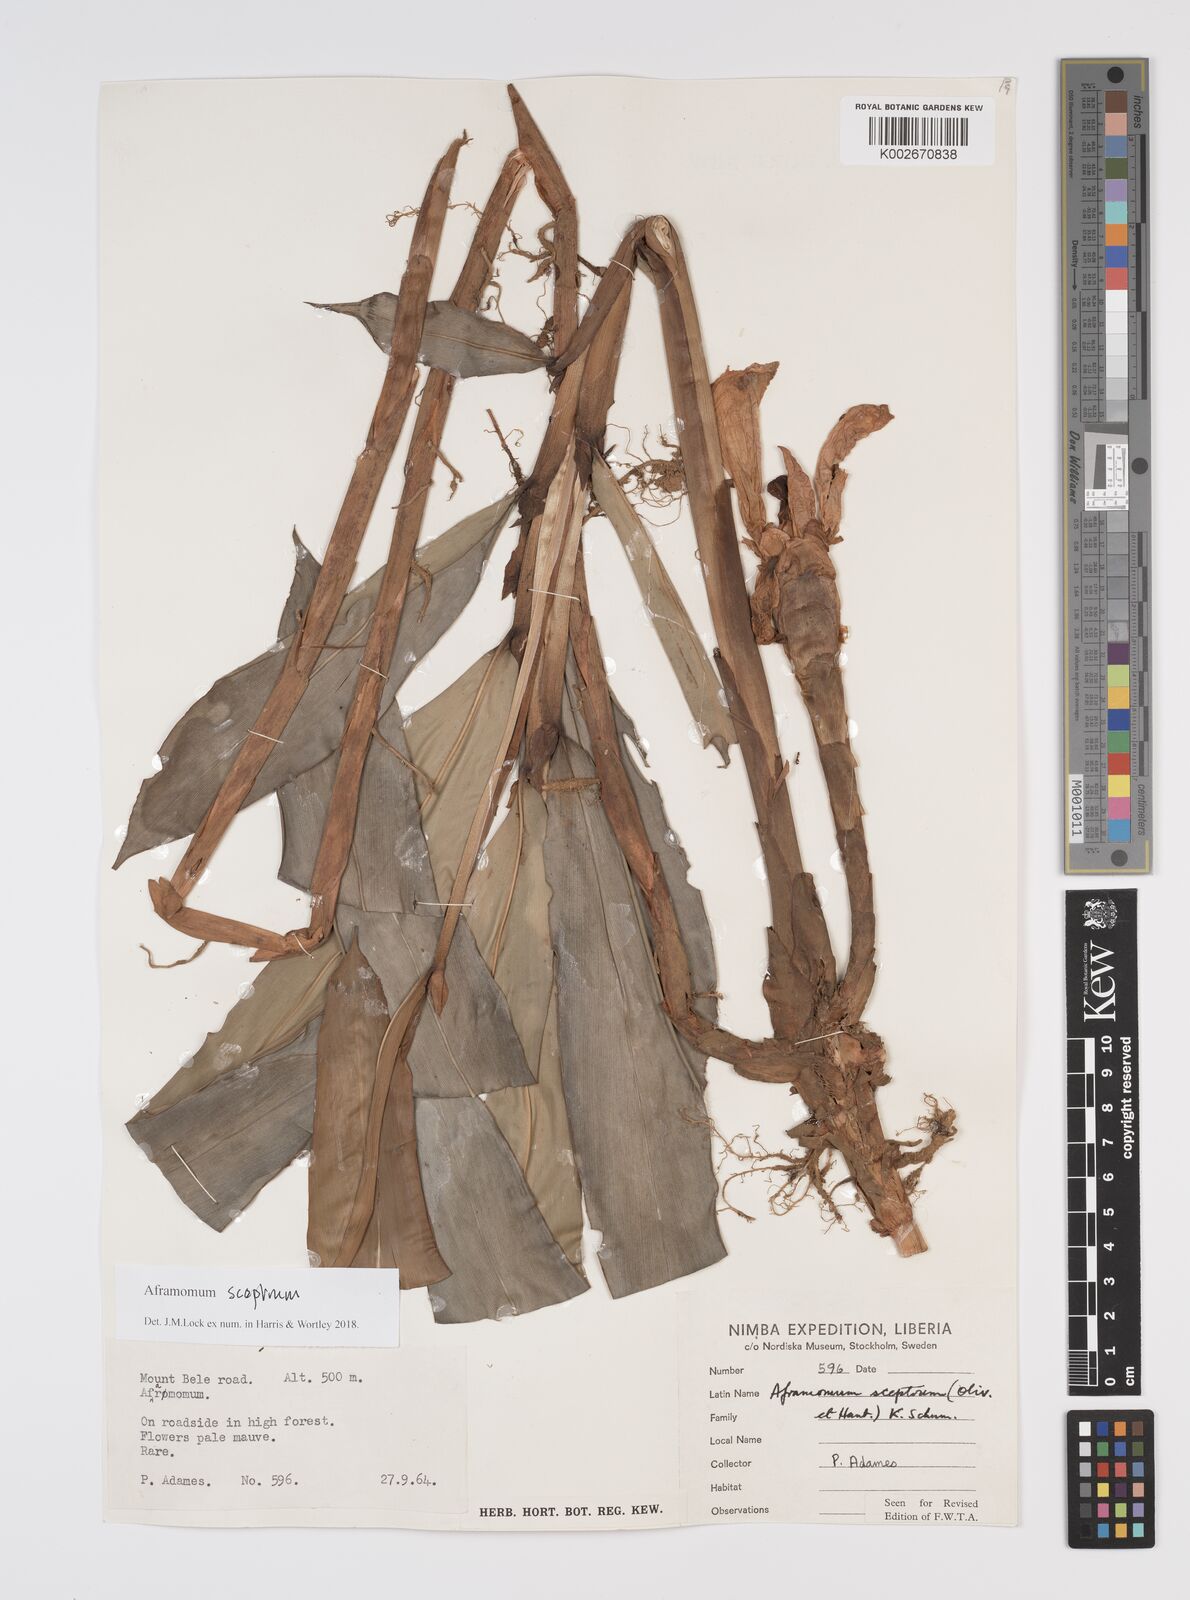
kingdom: Plantae
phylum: Tracheophyta
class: Liliopsida
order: Zingiberales
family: Zingiberaceae
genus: Aframomum
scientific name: Aframomum cereum
